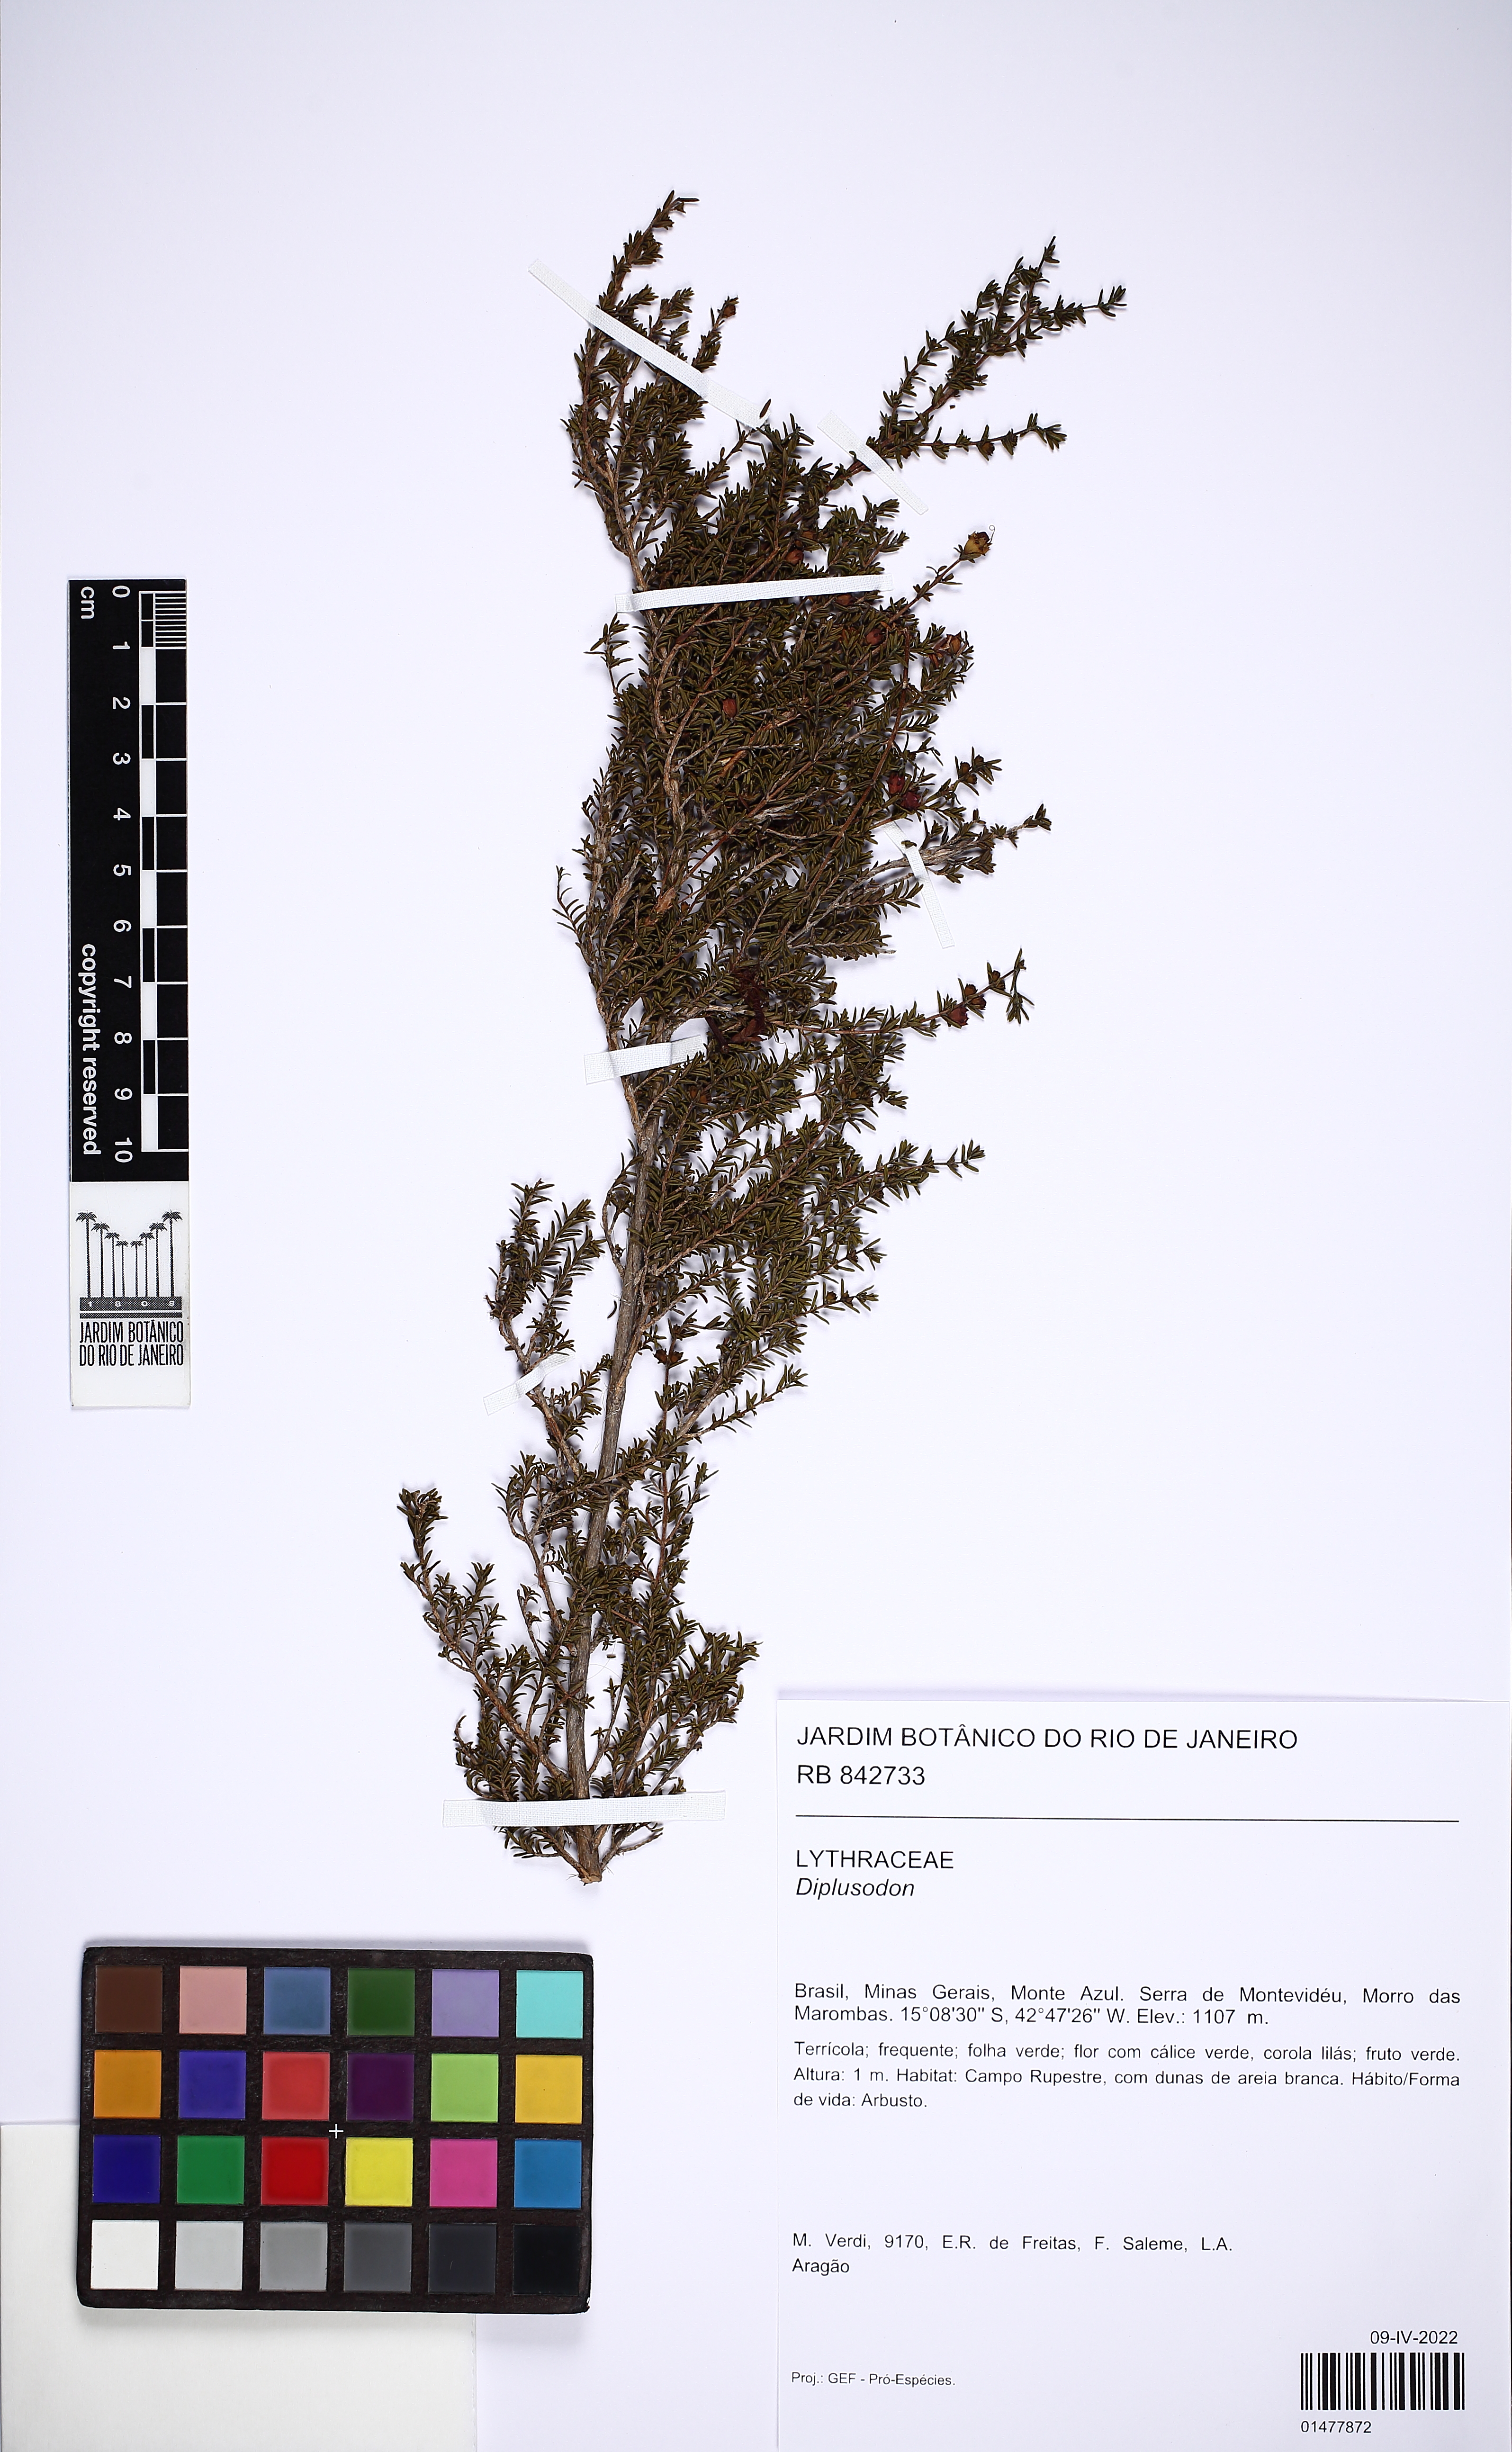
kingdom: Plantae
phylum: Tracheophyta
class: Magnoliopsida
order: Myrtales
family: Lythraceae
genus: Diplusodon
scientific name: Diplusodon
